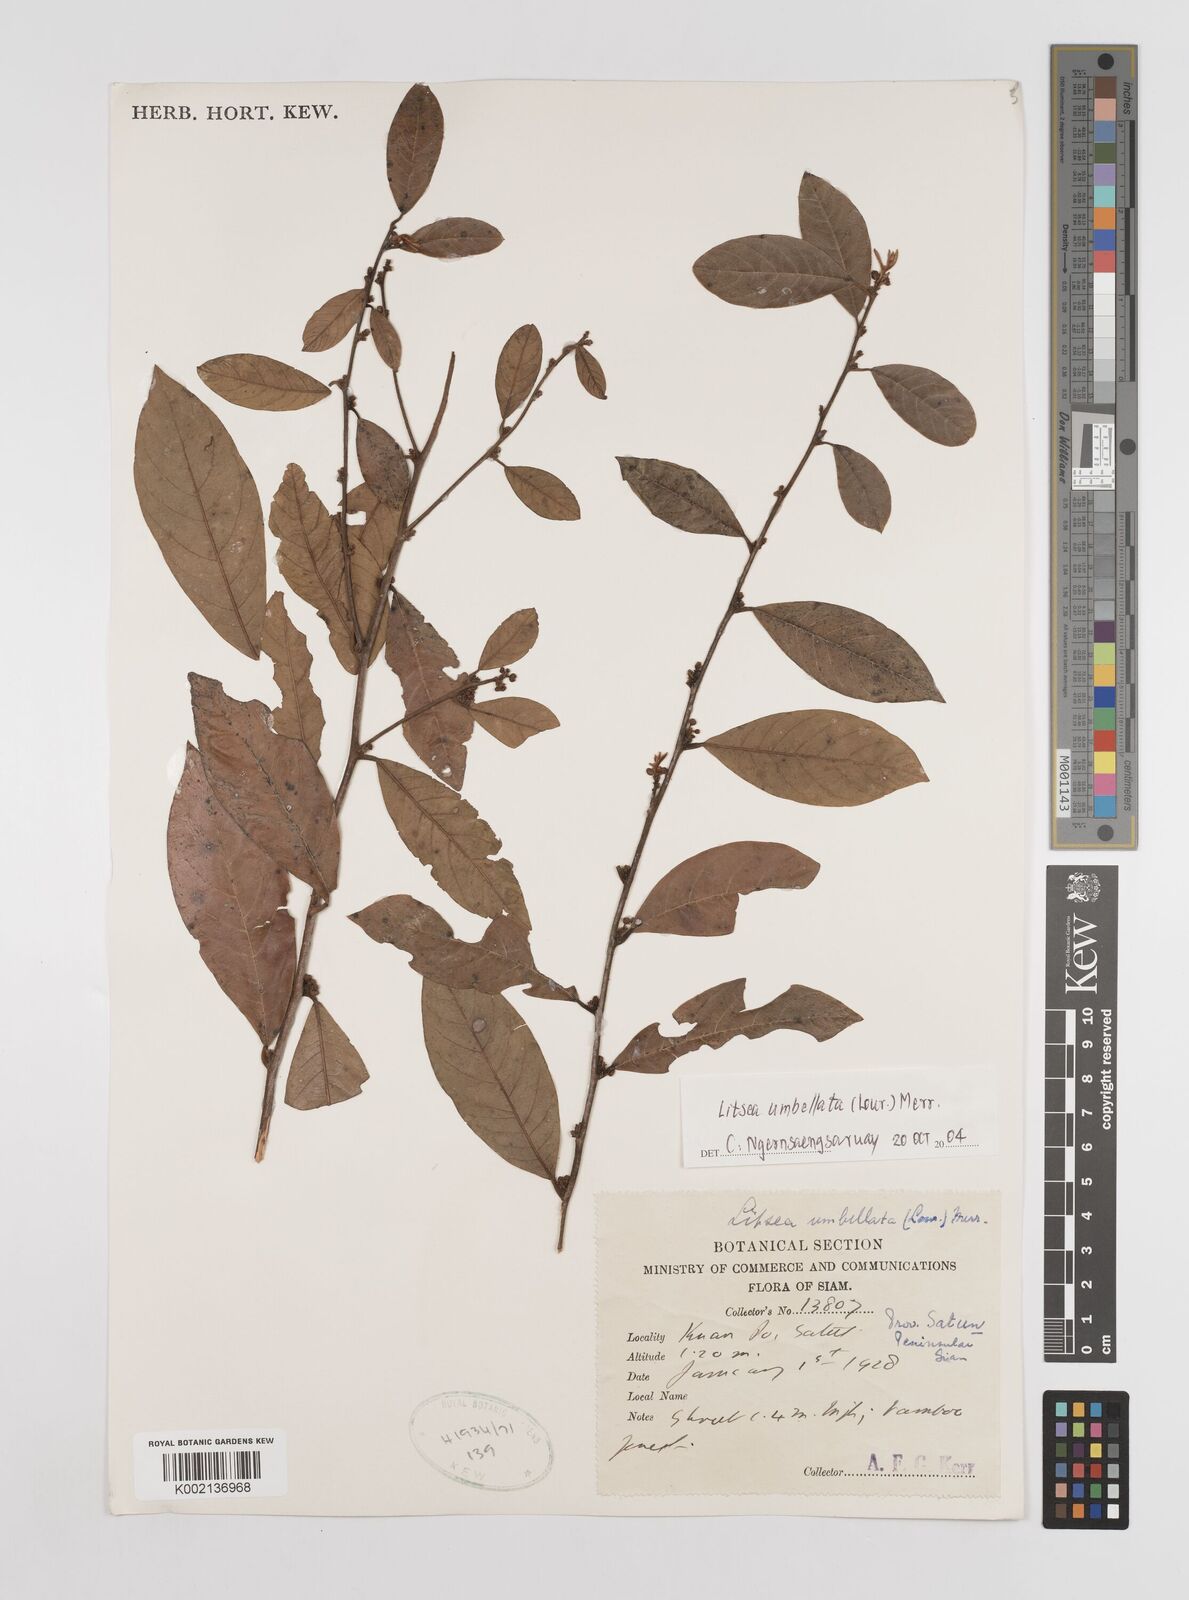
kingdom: Plantae
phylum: Tracheophyta
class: Magnoliopsida
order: Laurales
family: Lauraceae
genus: Litsea
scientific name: Litsea umbellata
